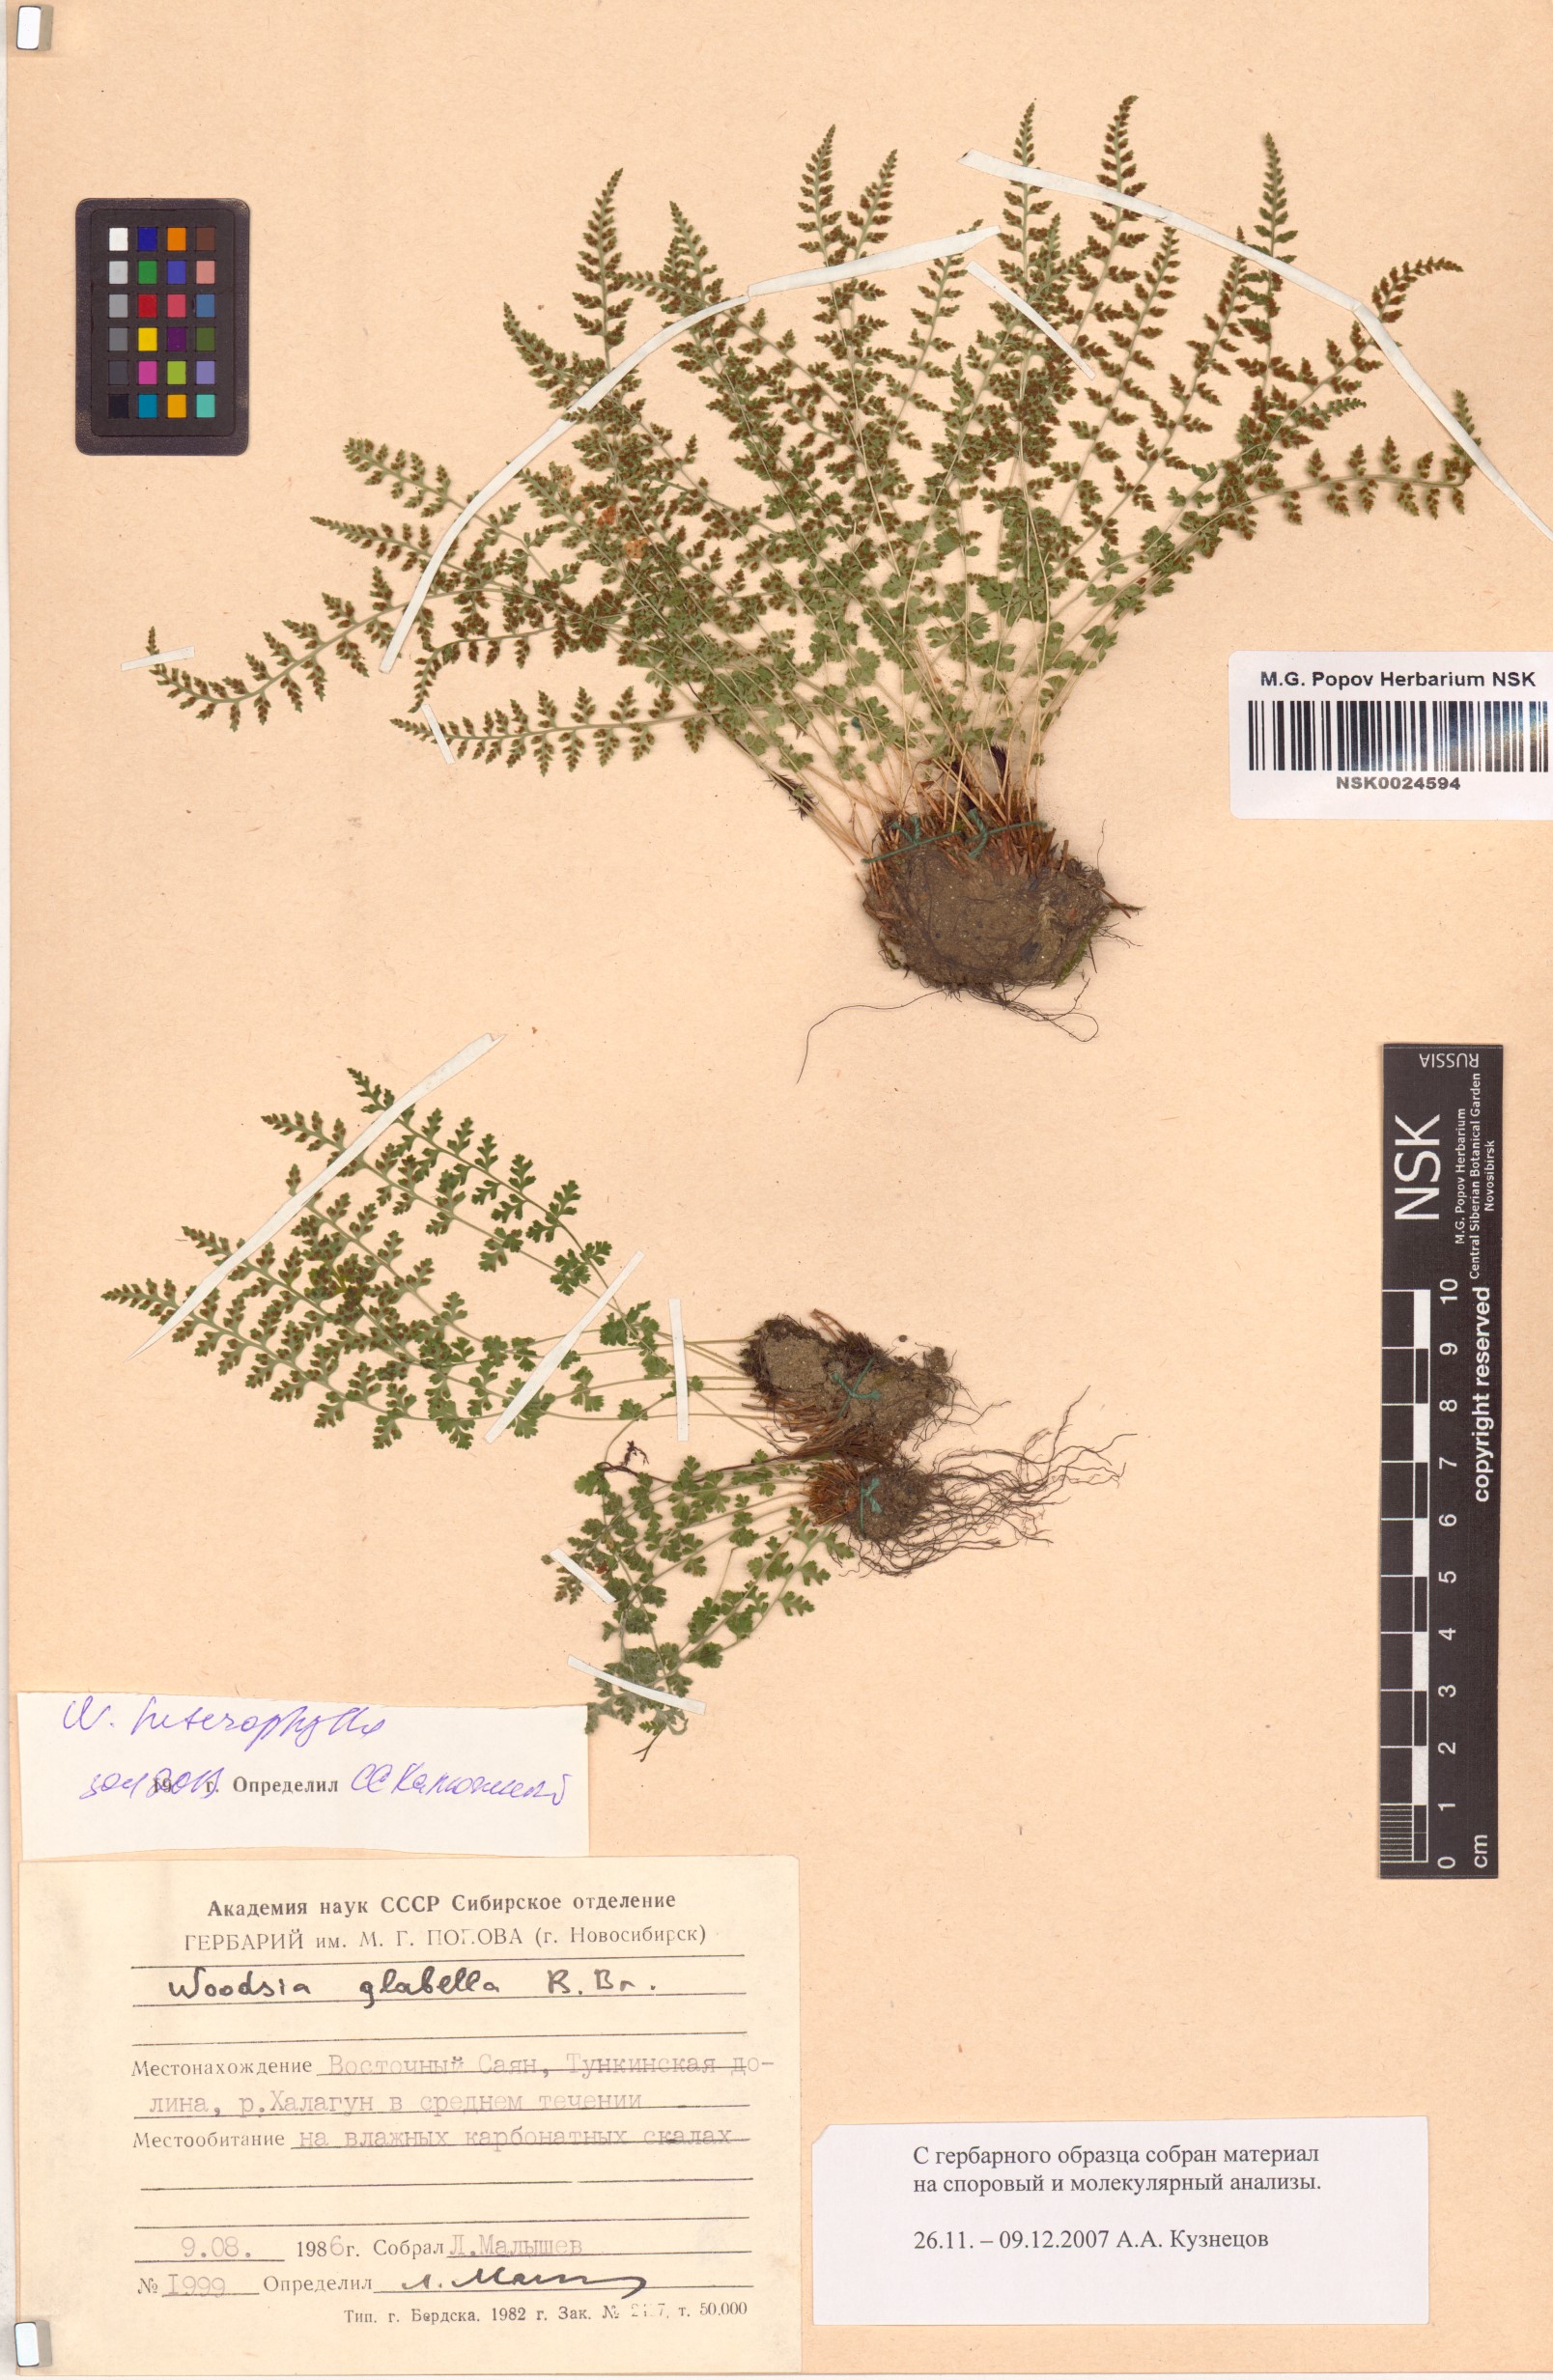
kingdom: Plantae
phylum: Tracheophyta
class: Polypodiopsida
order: Polypodiales
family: Woodsiaceae
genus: Woodsia
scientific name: Woodsia pulchella
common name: Graceful woodsia
